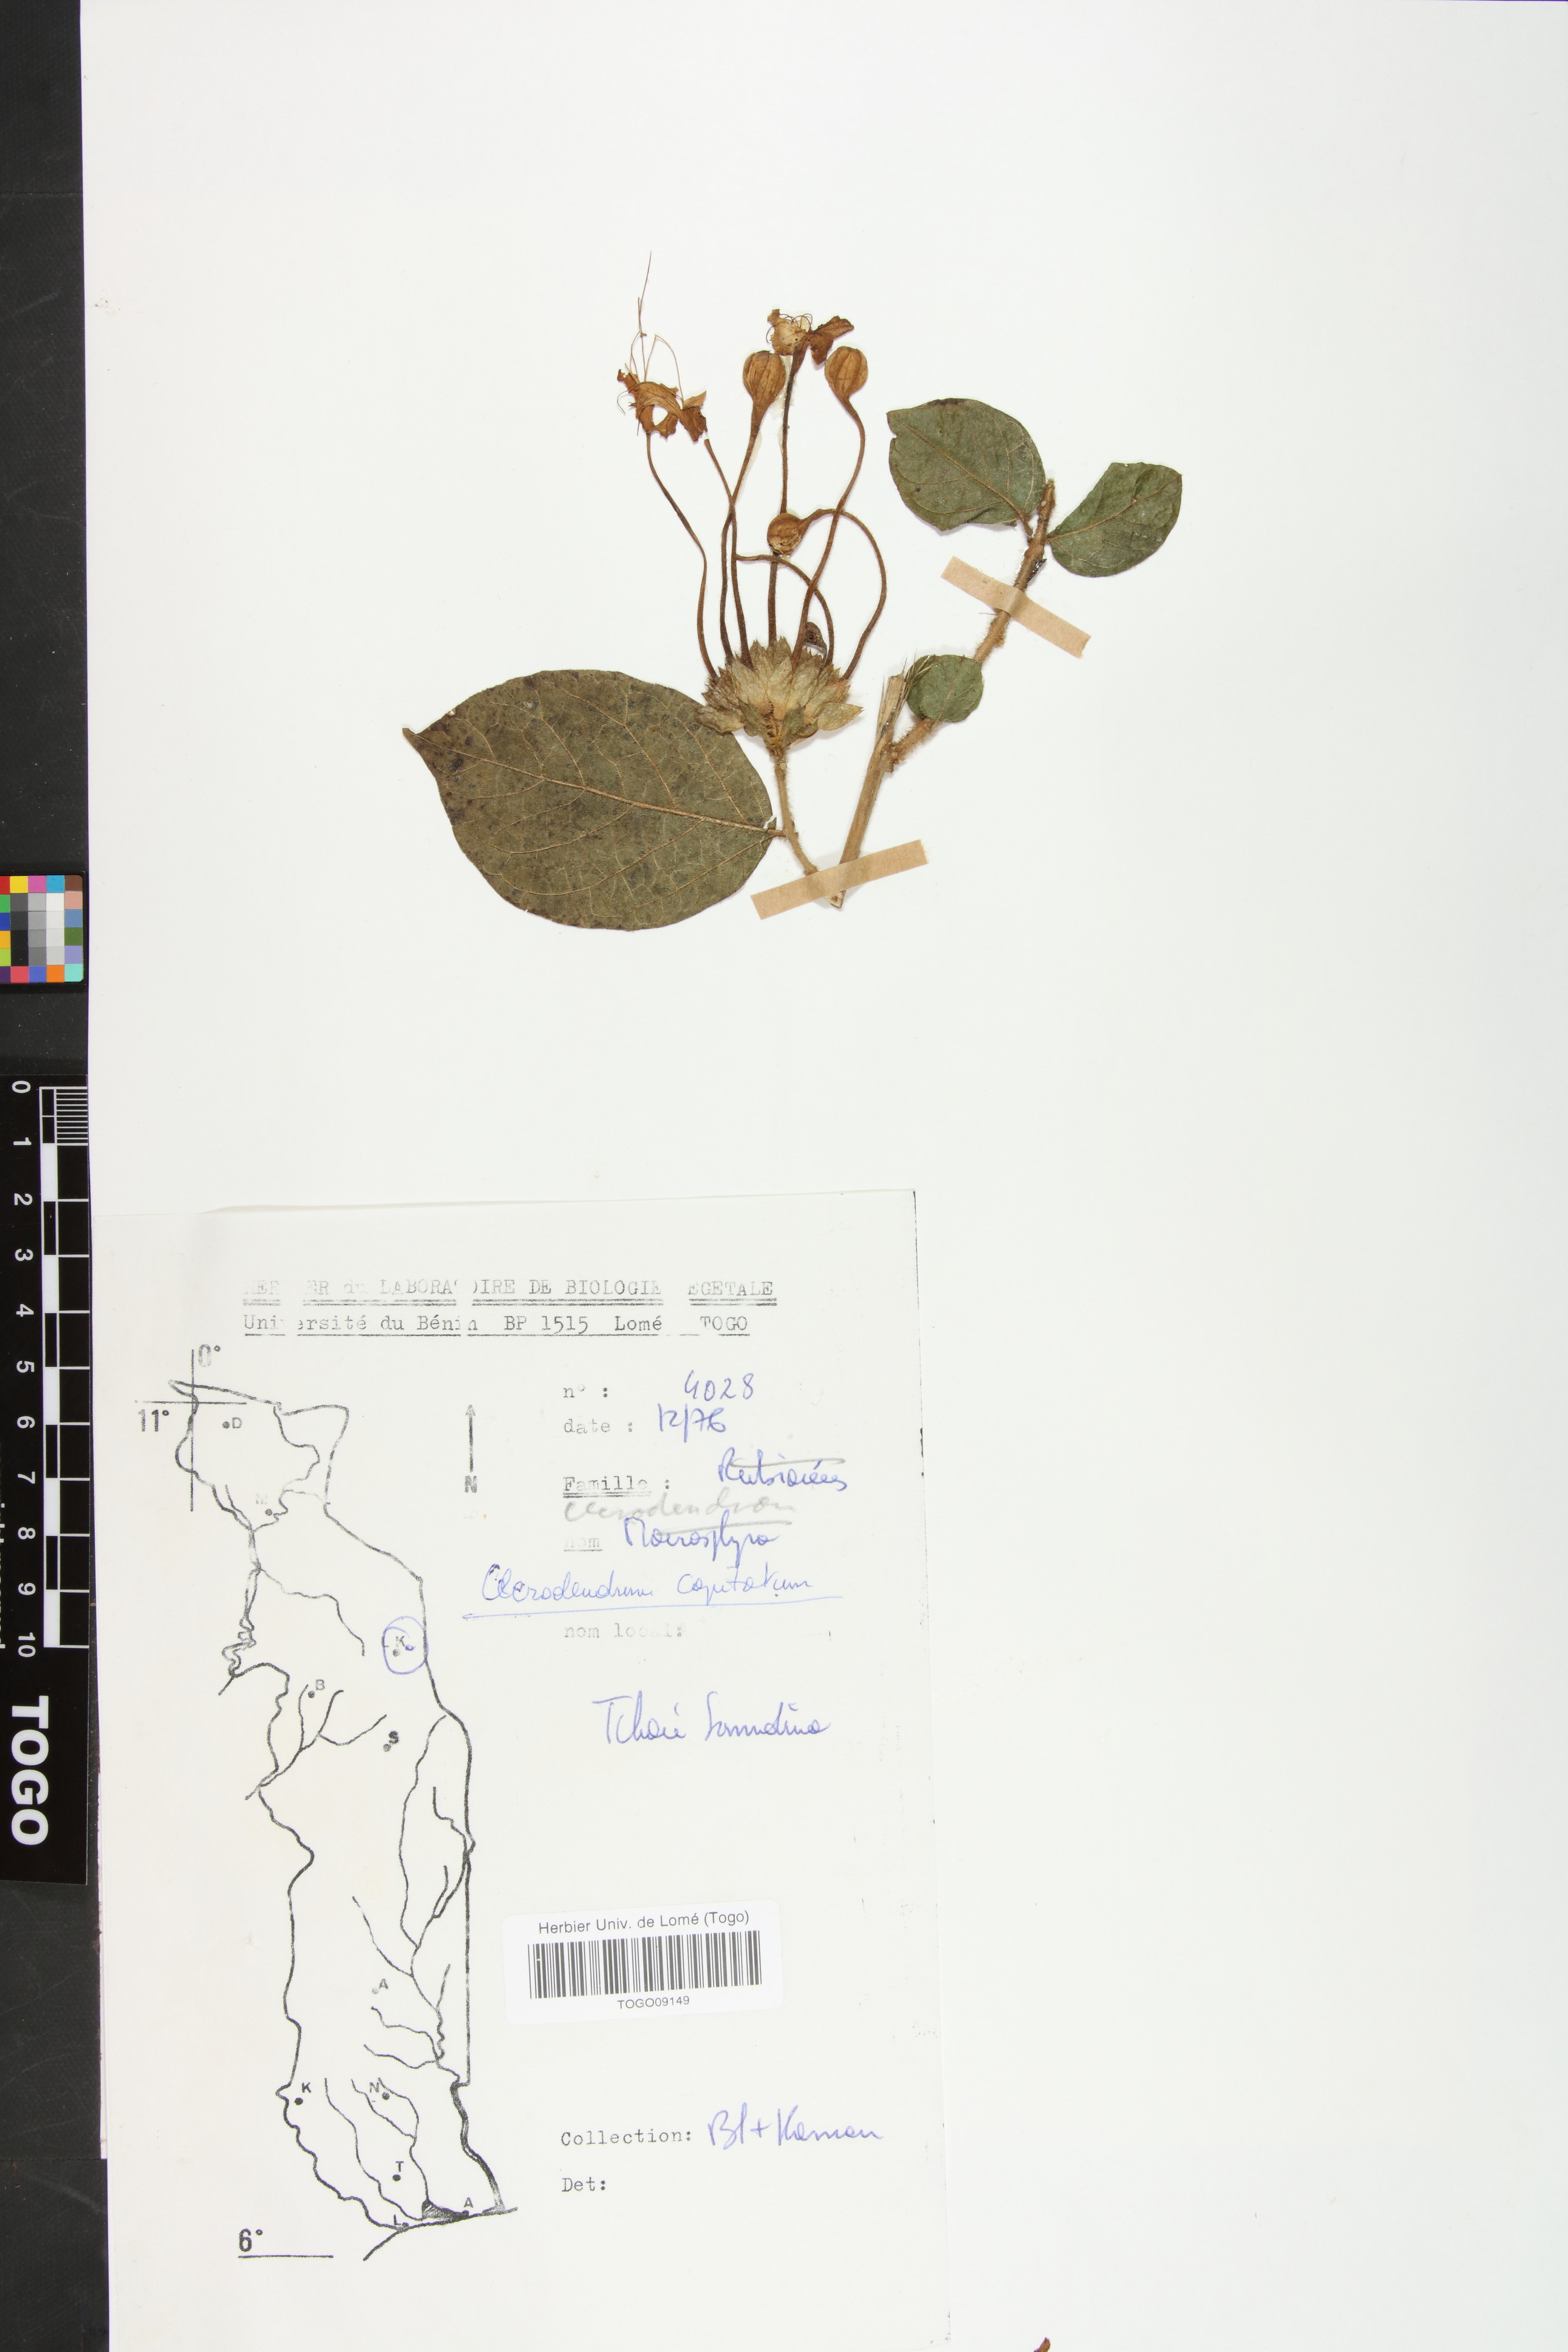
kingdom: Plantae
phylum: Tracheophyta
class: Magnoliopsida
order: Lamiales
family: Lamiaceae
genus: Clerodendrum
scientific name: Clerodendrum capitatum
